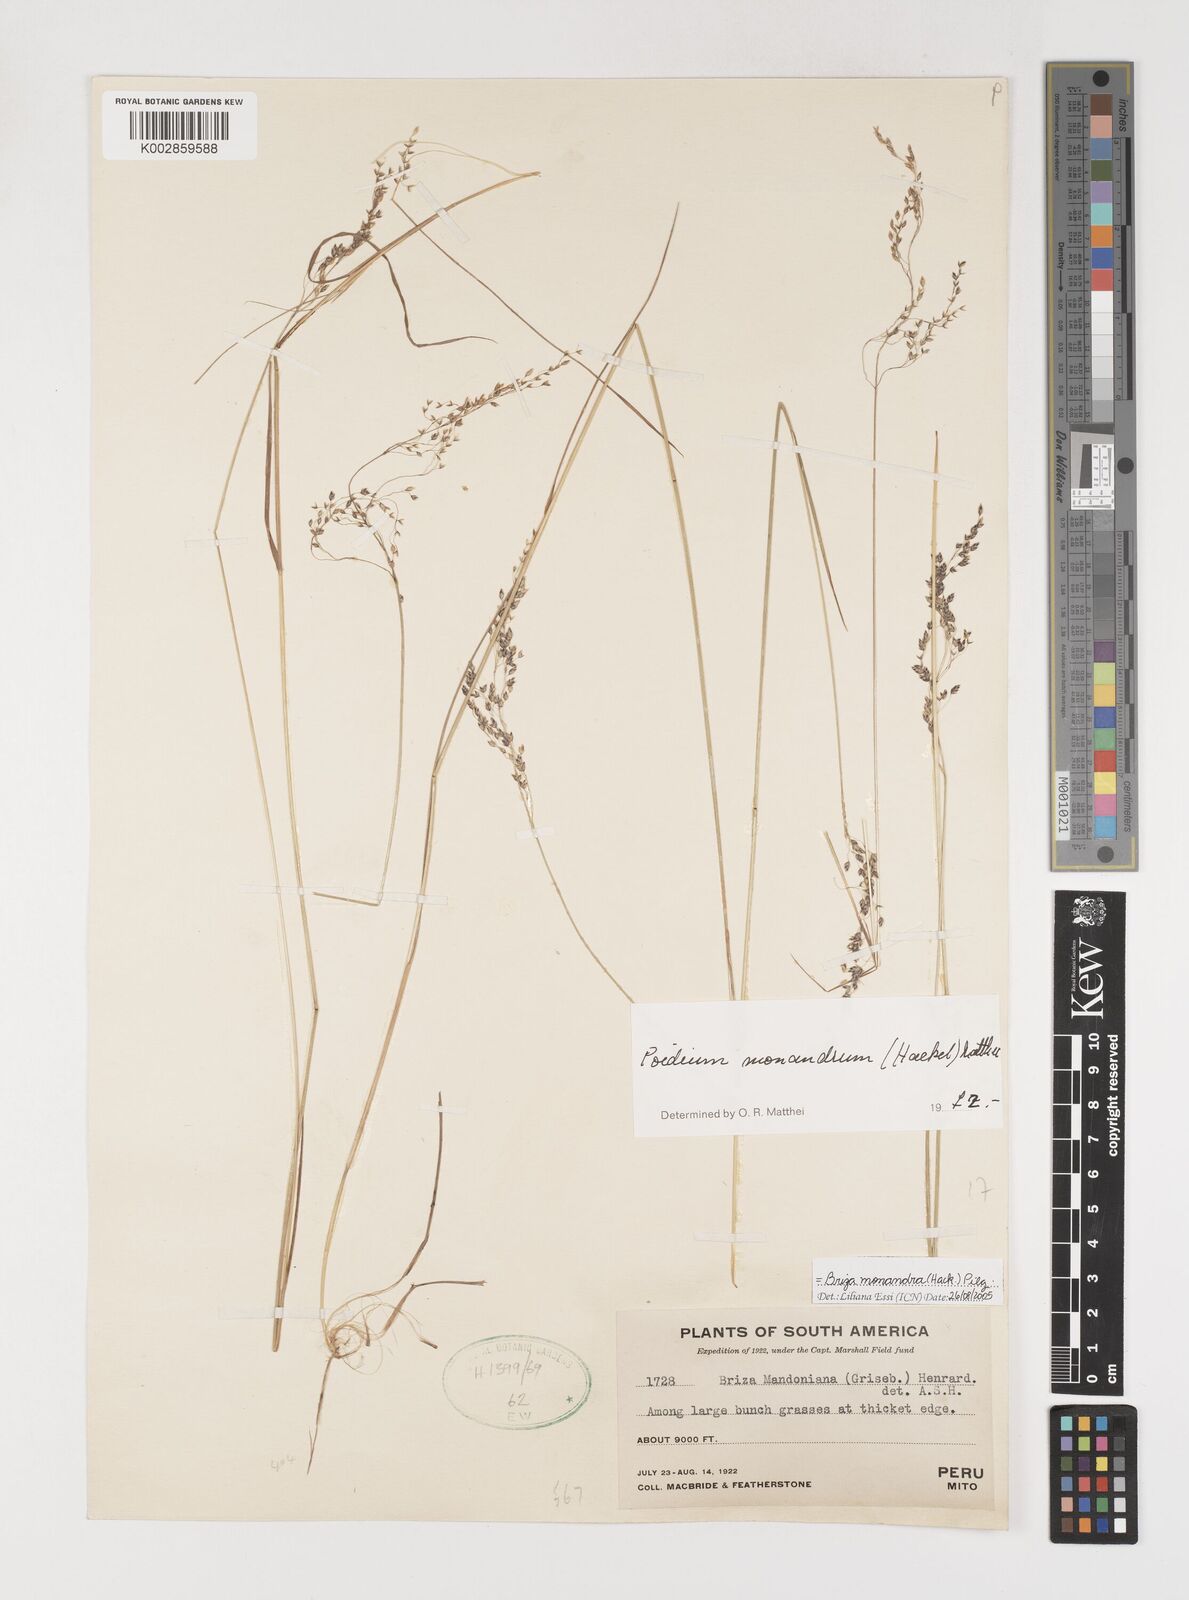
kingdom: Plantae
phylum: Tracheophyta
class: Liliopsida
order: Poales
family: Poaceae
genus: Poidium
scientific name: Poidium monandrum
